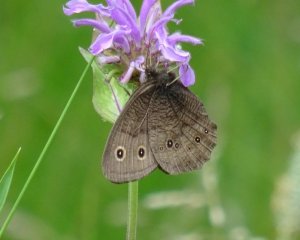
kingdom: Animalia
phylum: Arthropoda
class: Insecta
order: Lepidoptera
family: Nymphalidae
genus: Cercyonis
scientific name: Cercyonis pegala
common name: Common Wood-Nymph
